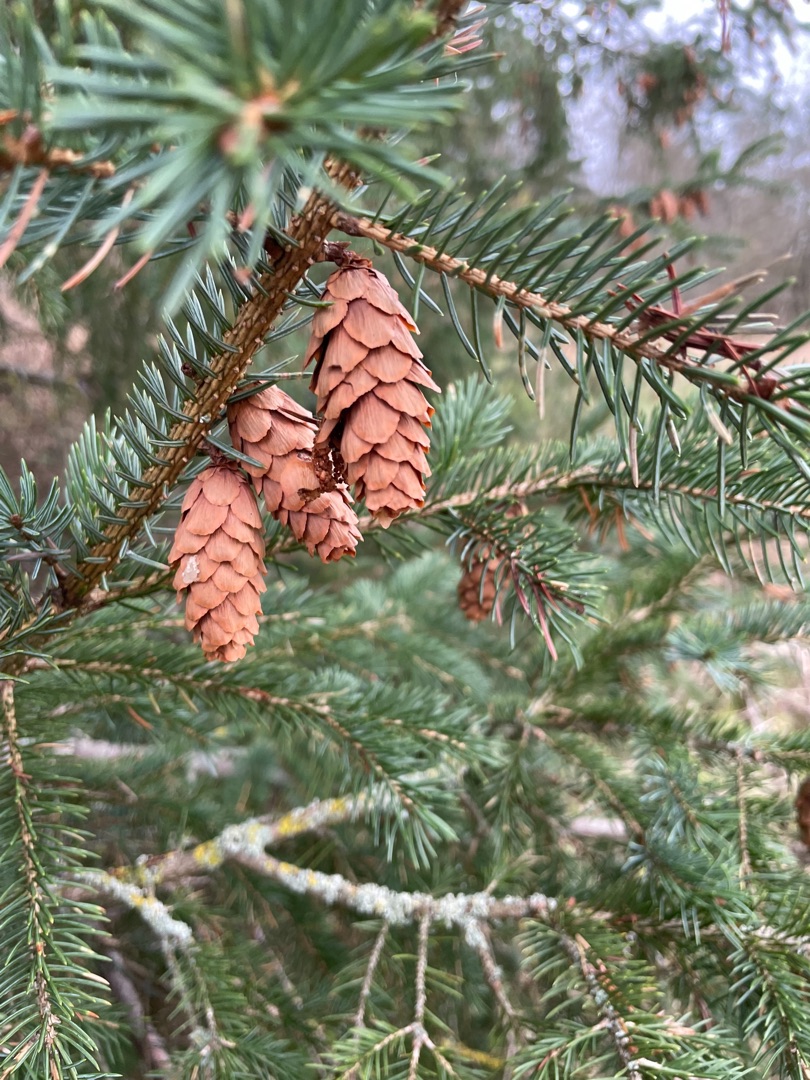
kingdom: Plantae
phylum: Tracheophyta
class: Pinopsida
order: Pinales
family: Pinaceae
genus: Picea
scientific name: Picea sitchensis
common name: Sitka-gran
